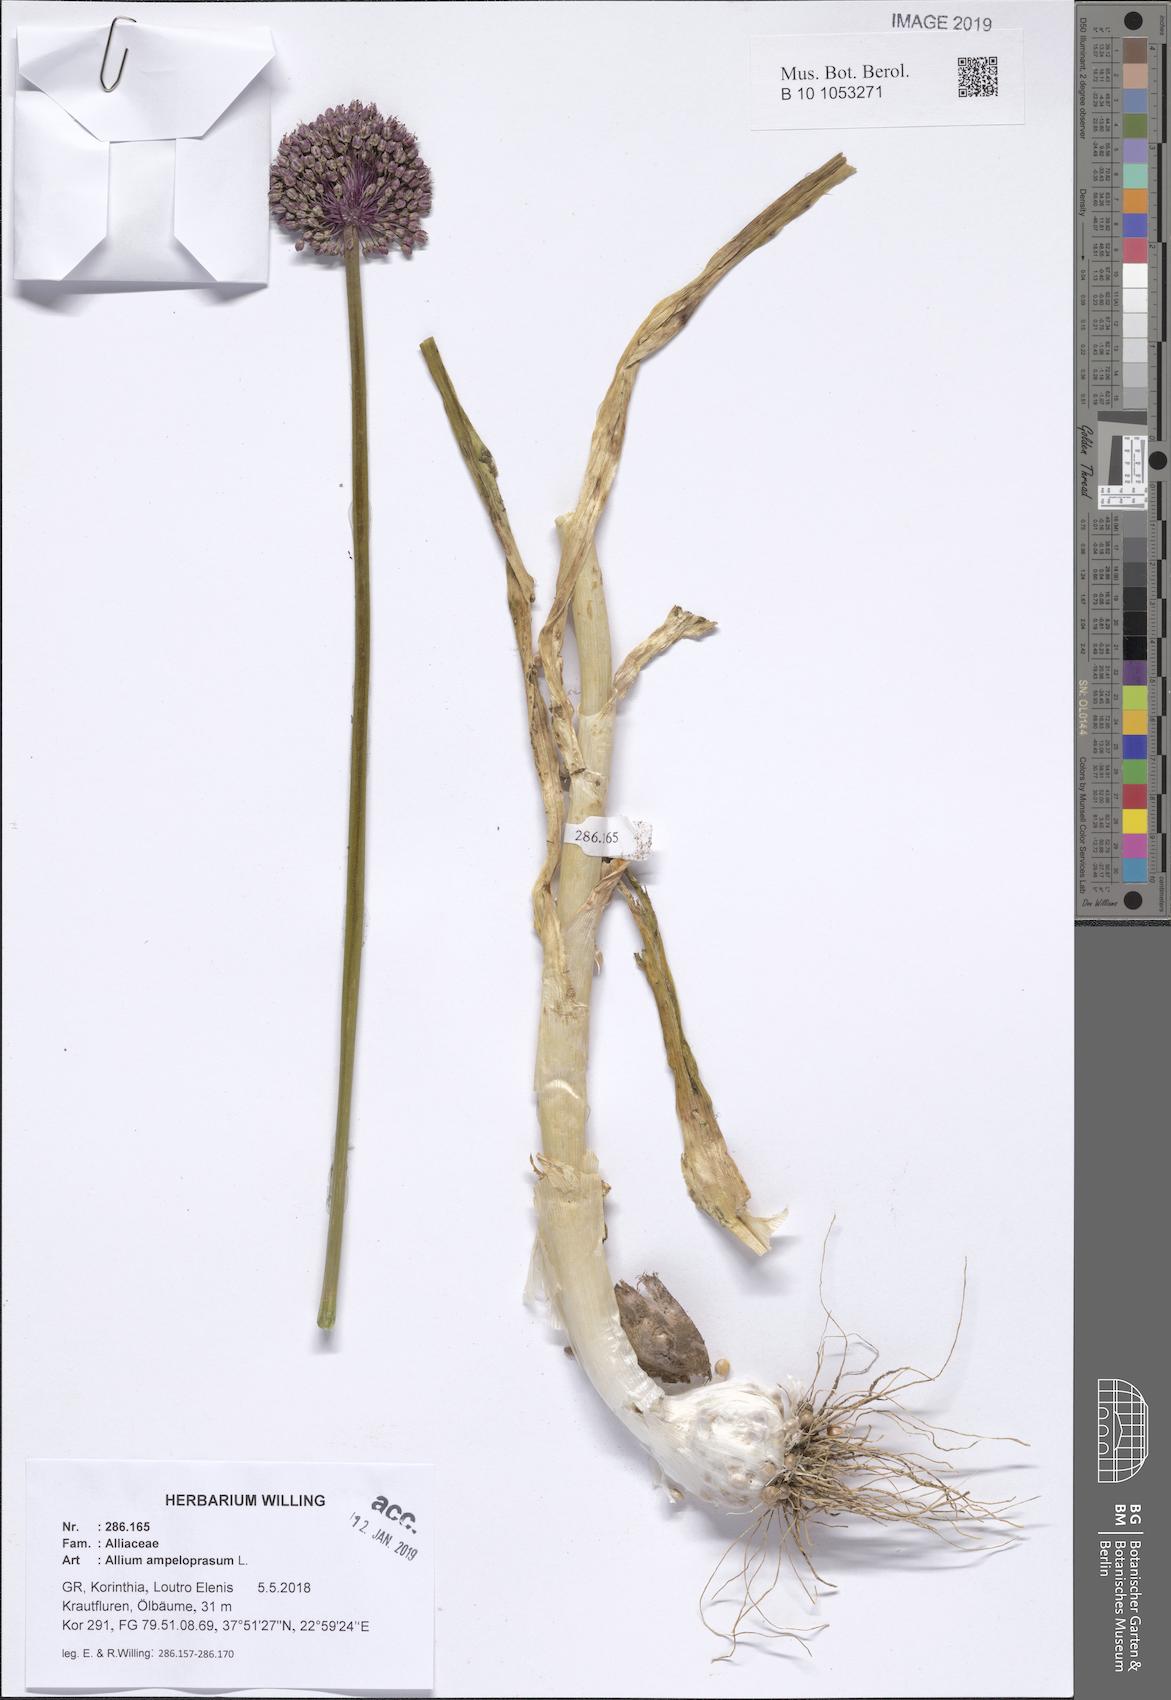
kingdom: Plantae
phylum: Tracheophyta
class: Liliopsida
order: Asparagales
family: Amaryllidaceae
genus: Allium
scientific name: Allium ampeloprasum
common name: Wild leek
